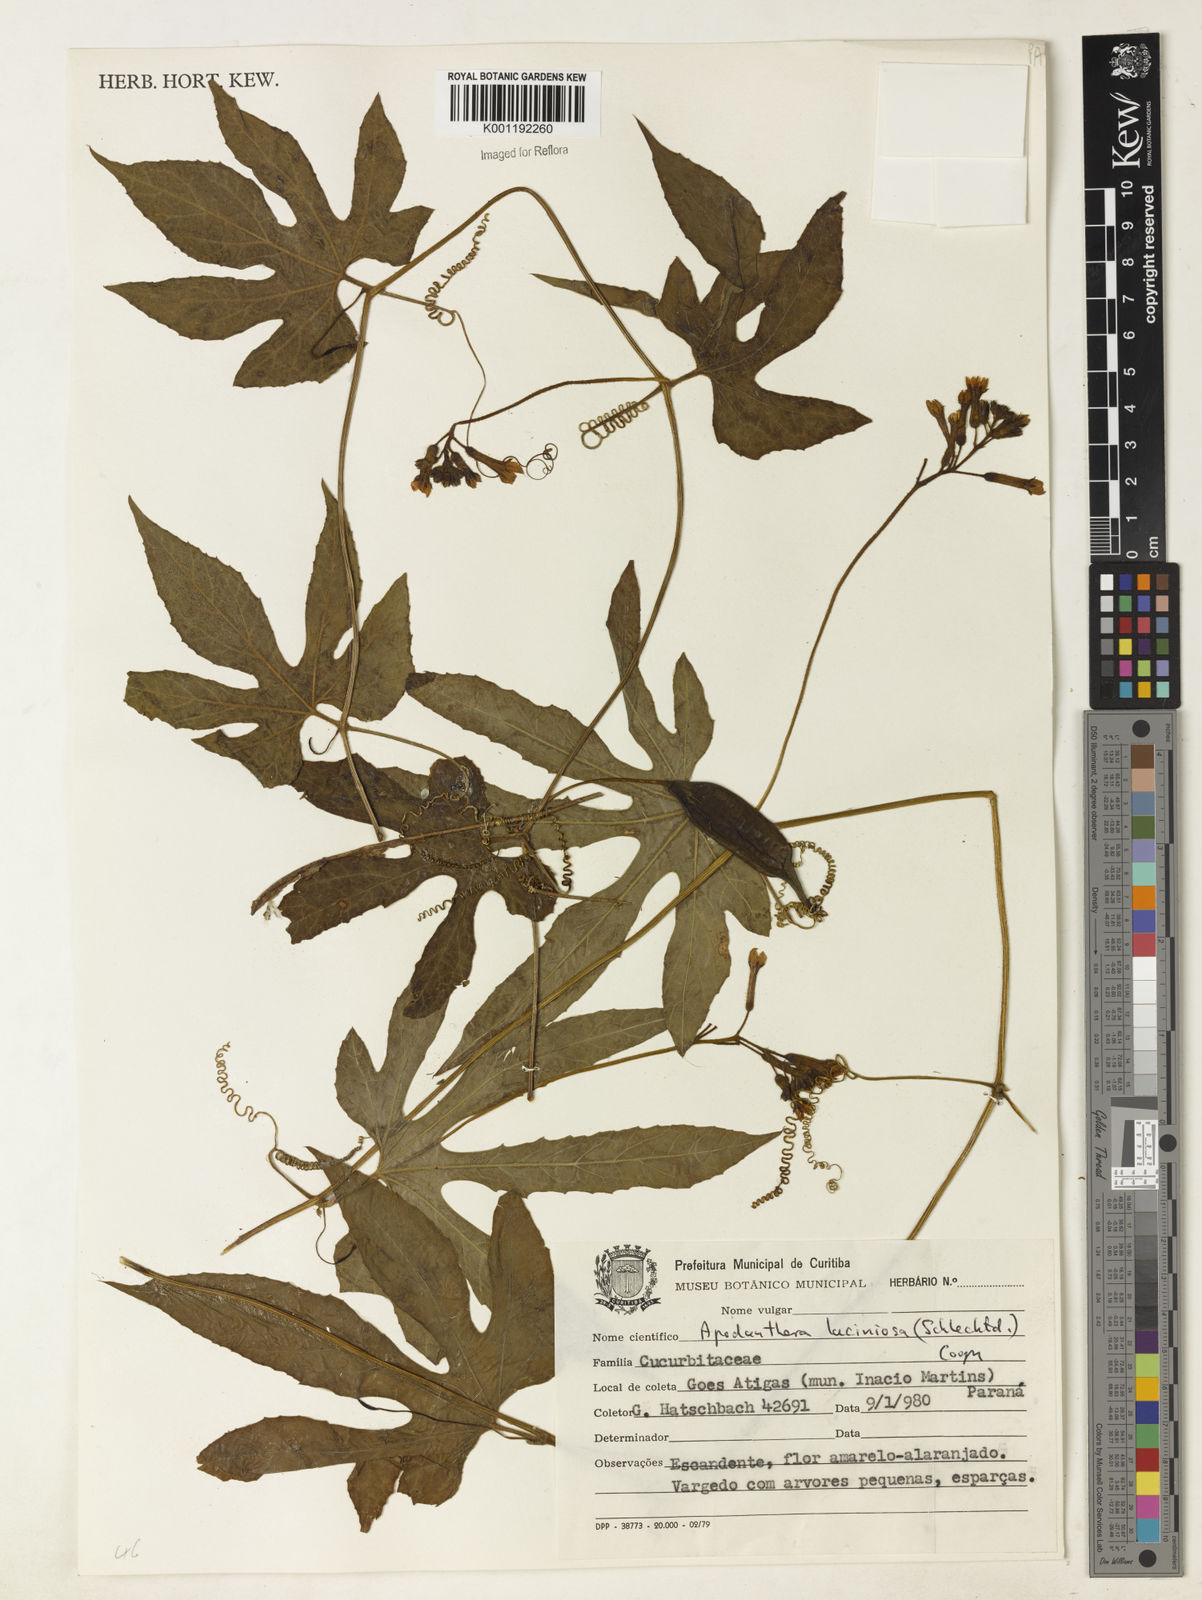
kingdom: Plantae
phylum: Tracheophyta
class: Magnoliopsida
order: Cucurbitales
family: Cucurbitaceae
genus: Apodanthera
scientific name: Apodanthera laciniosa
